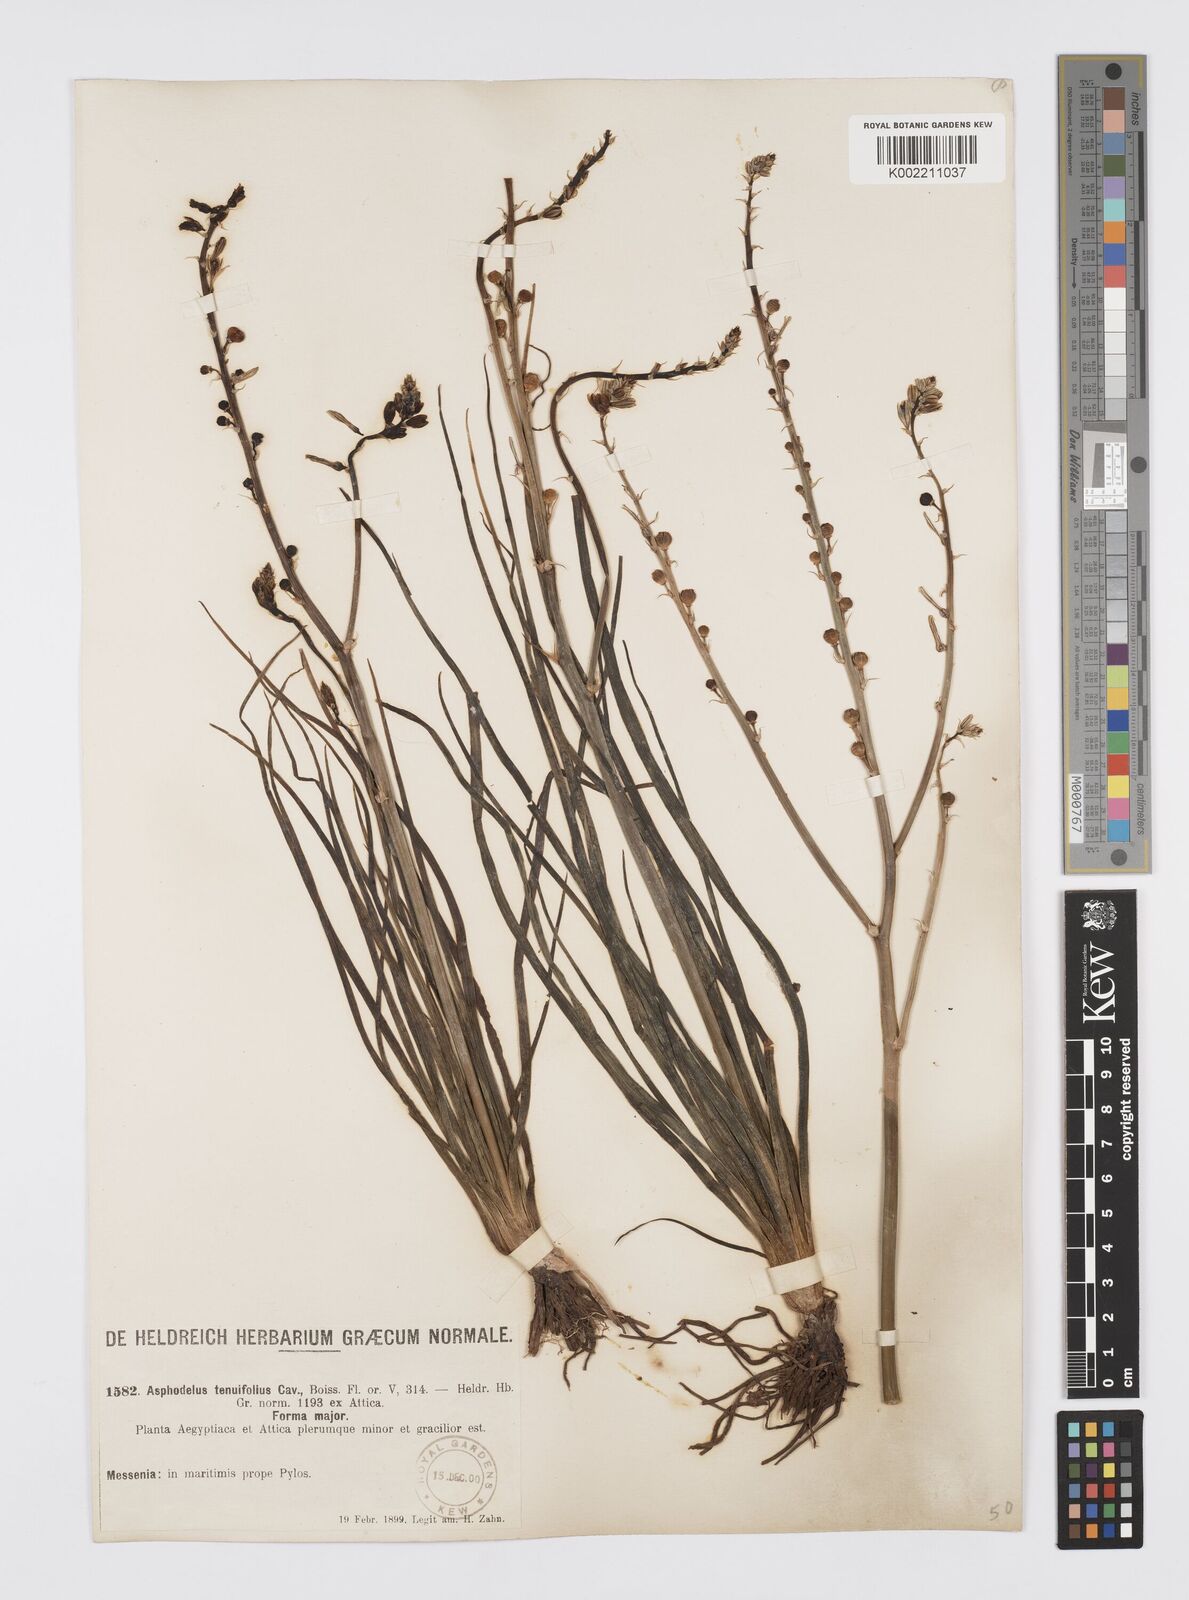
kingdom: Plantae
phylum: Tracheophyta
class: Liliopsida
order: Asparagales
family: Asphodelaceae
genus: Asphodelus
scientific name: Asphodelus fistulosus
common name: Onionweed
